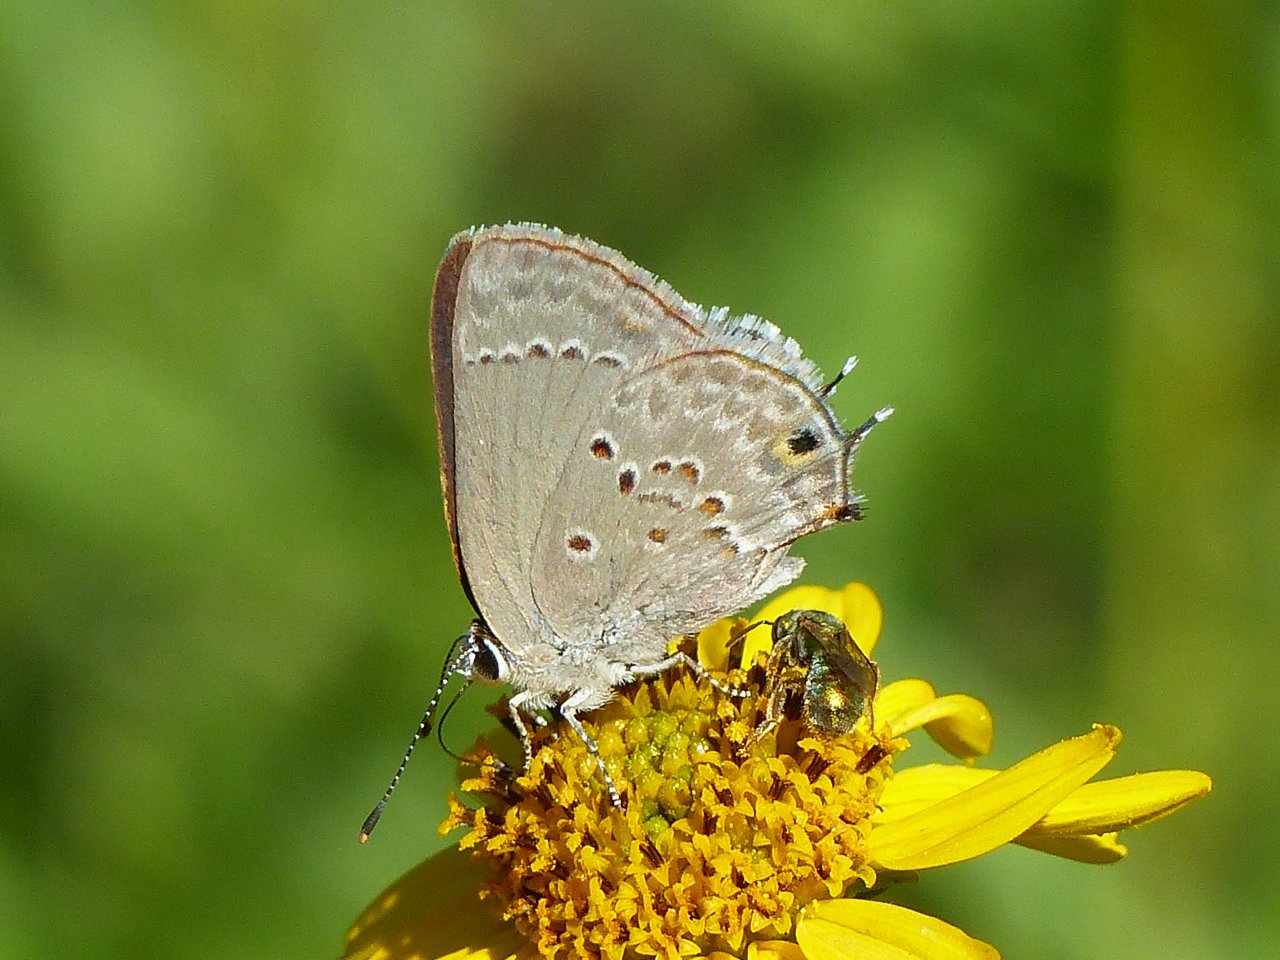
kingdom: Animalia
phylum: Arthropoda
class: Insecta
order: Lepidoptera
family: Lycaenidae
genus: Callicista
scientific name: Callicista columella
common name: Mallow Scrub-Hairstreak
